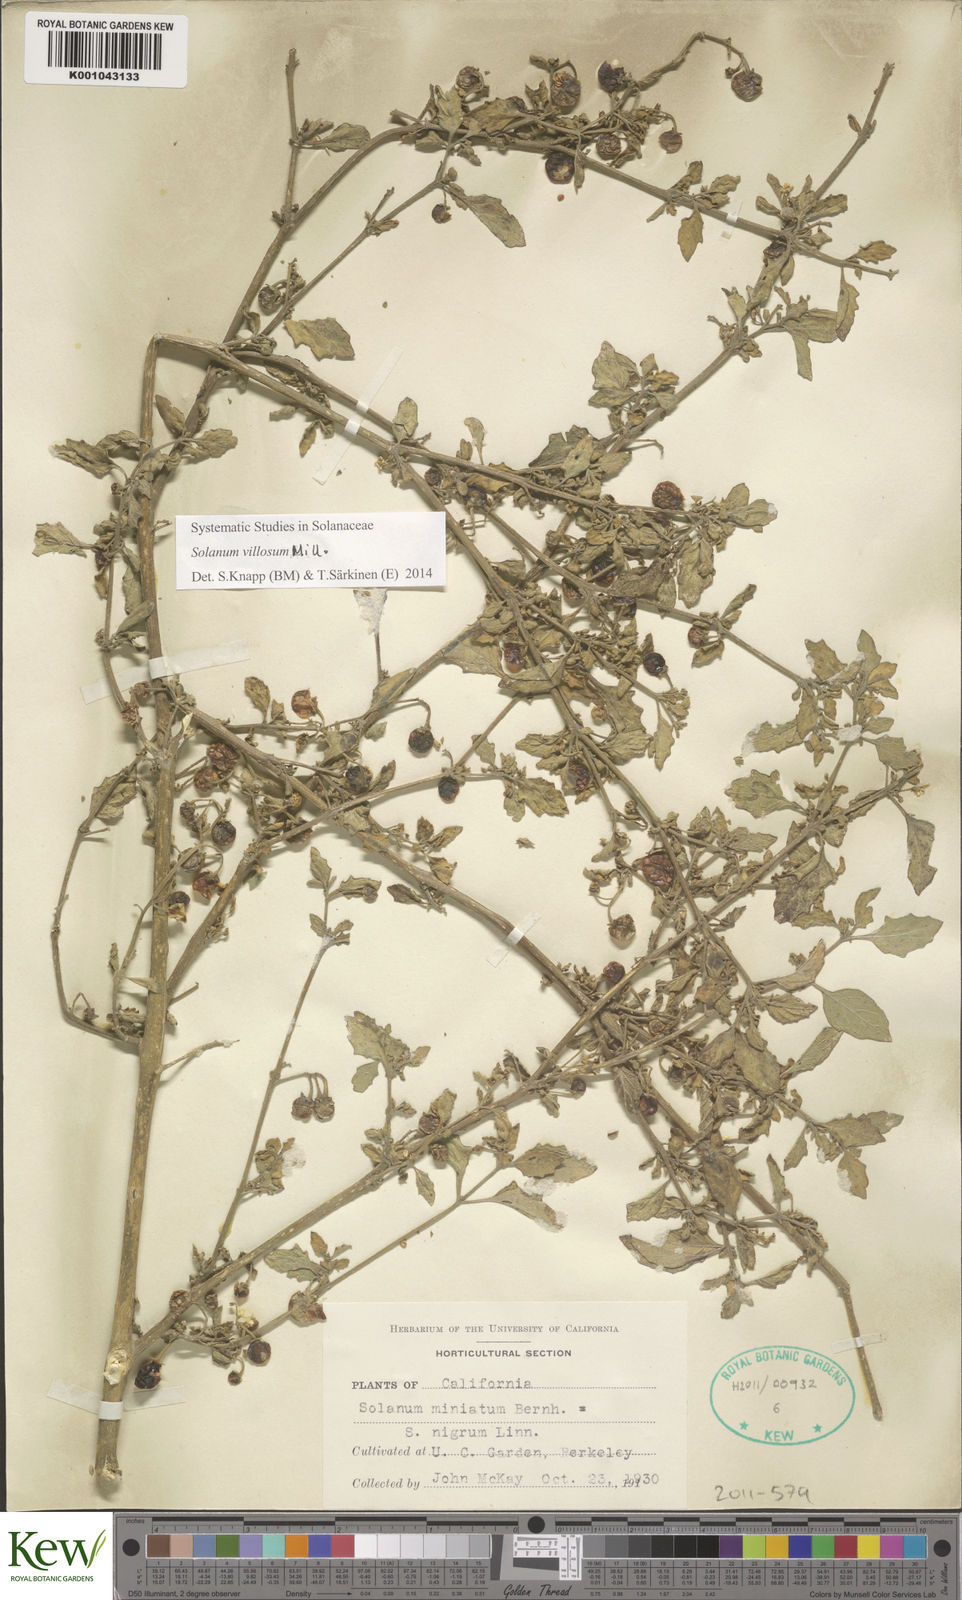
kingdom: Plantae
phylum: Tracheophyta
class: Magnoliopsida
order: Solanales
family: Solanaceae
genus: Solanum
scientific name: Solanum villosum
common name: Red nightshade
